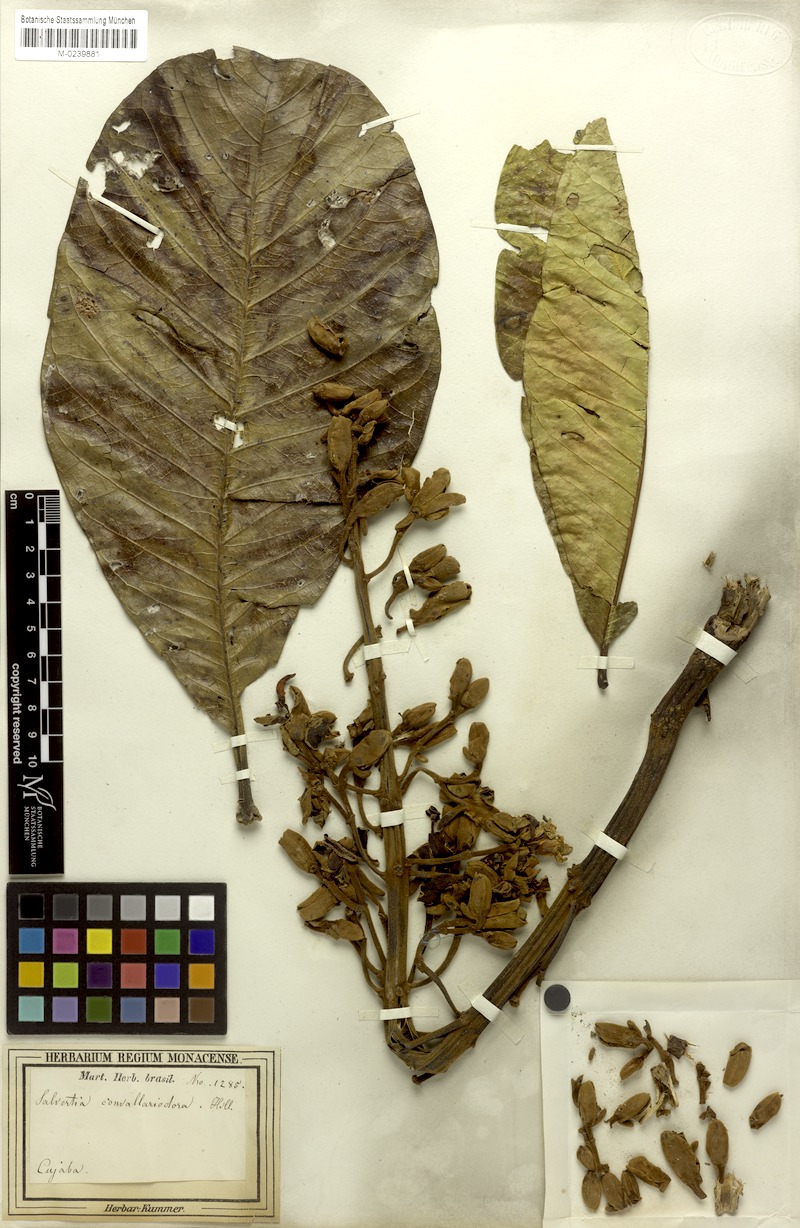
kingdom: Plantae
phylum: Tracheophyta
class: Magnoliopsida
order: Myrtales
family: Vochysiaceae
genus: Salvertia
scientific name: Salvertia convallariodora
